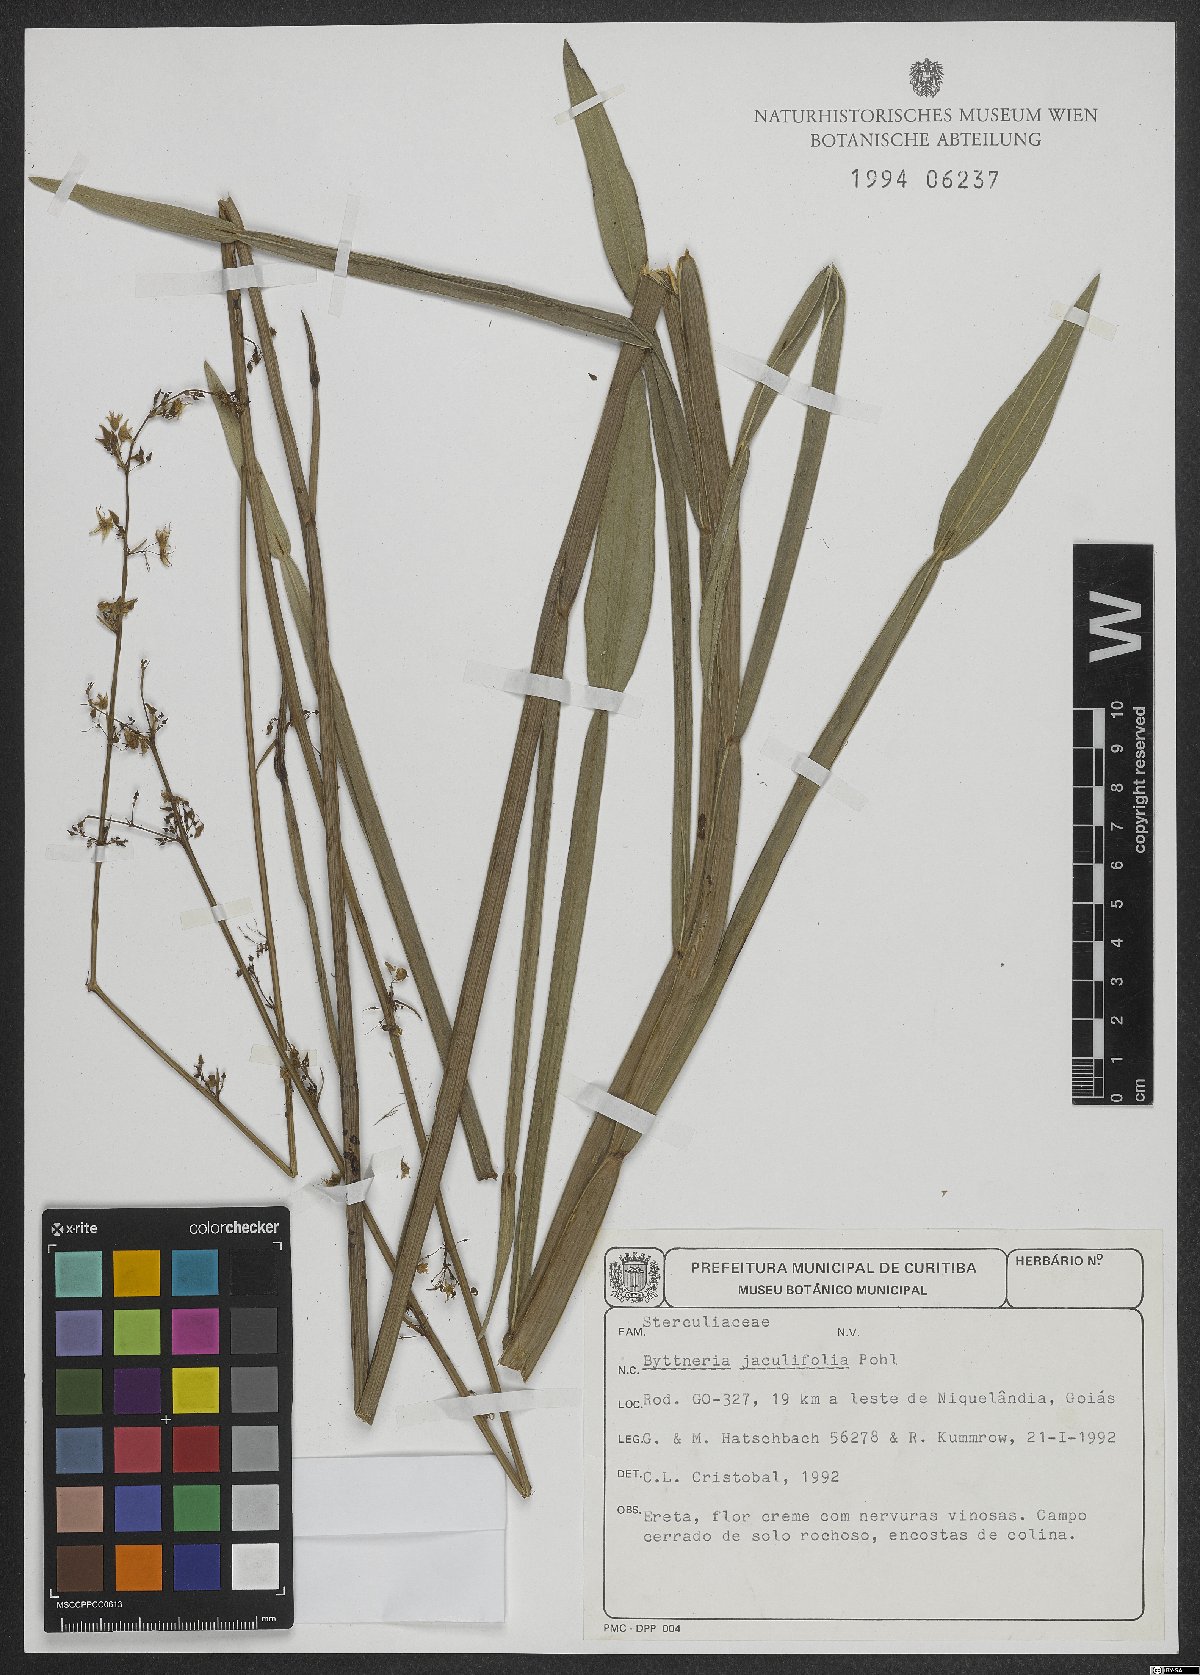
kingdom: Plantae
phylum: Tracheophyta
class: Magnoliopsida
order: Malvales
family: Malvaceae
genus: Byttneria
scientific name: Byttneria jaculifolia
